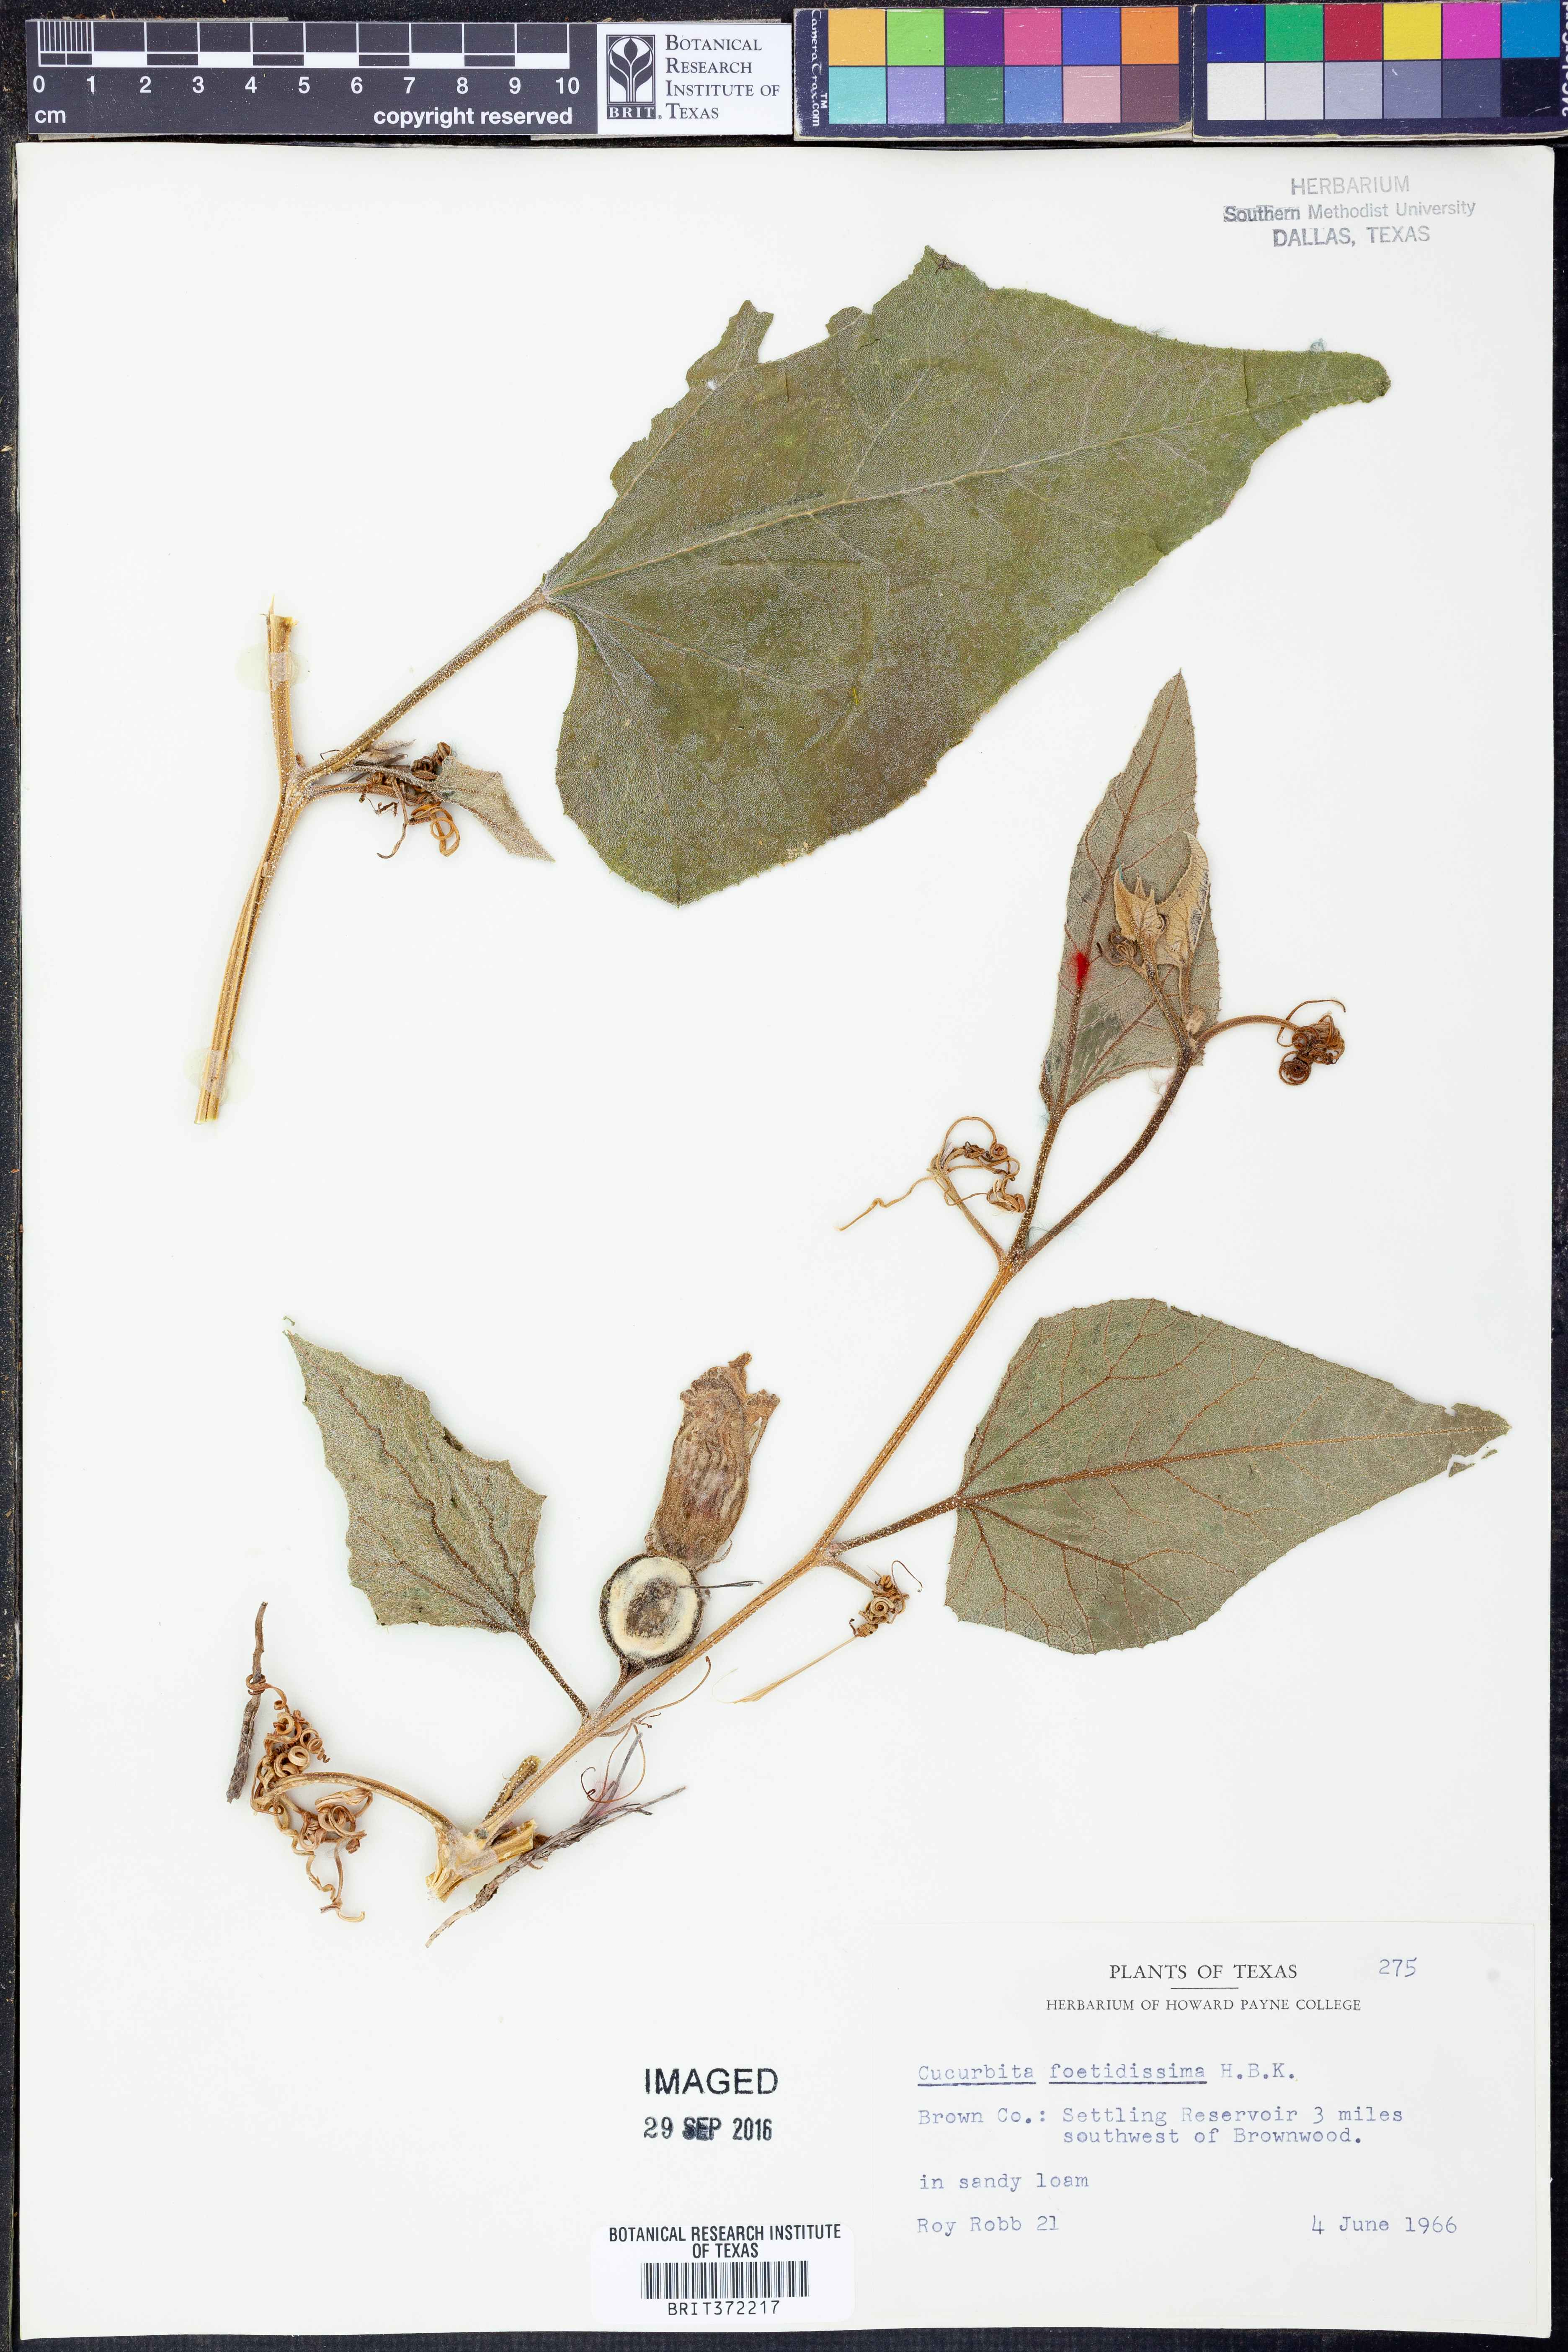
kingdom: Plantae
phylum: Tracheophyta
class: Magnoliopsida
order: Cucurbitales
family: Cucurbitaceae
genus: Cucurbita
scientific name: Cucurbita foetidissima
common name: Buffalo gourd
